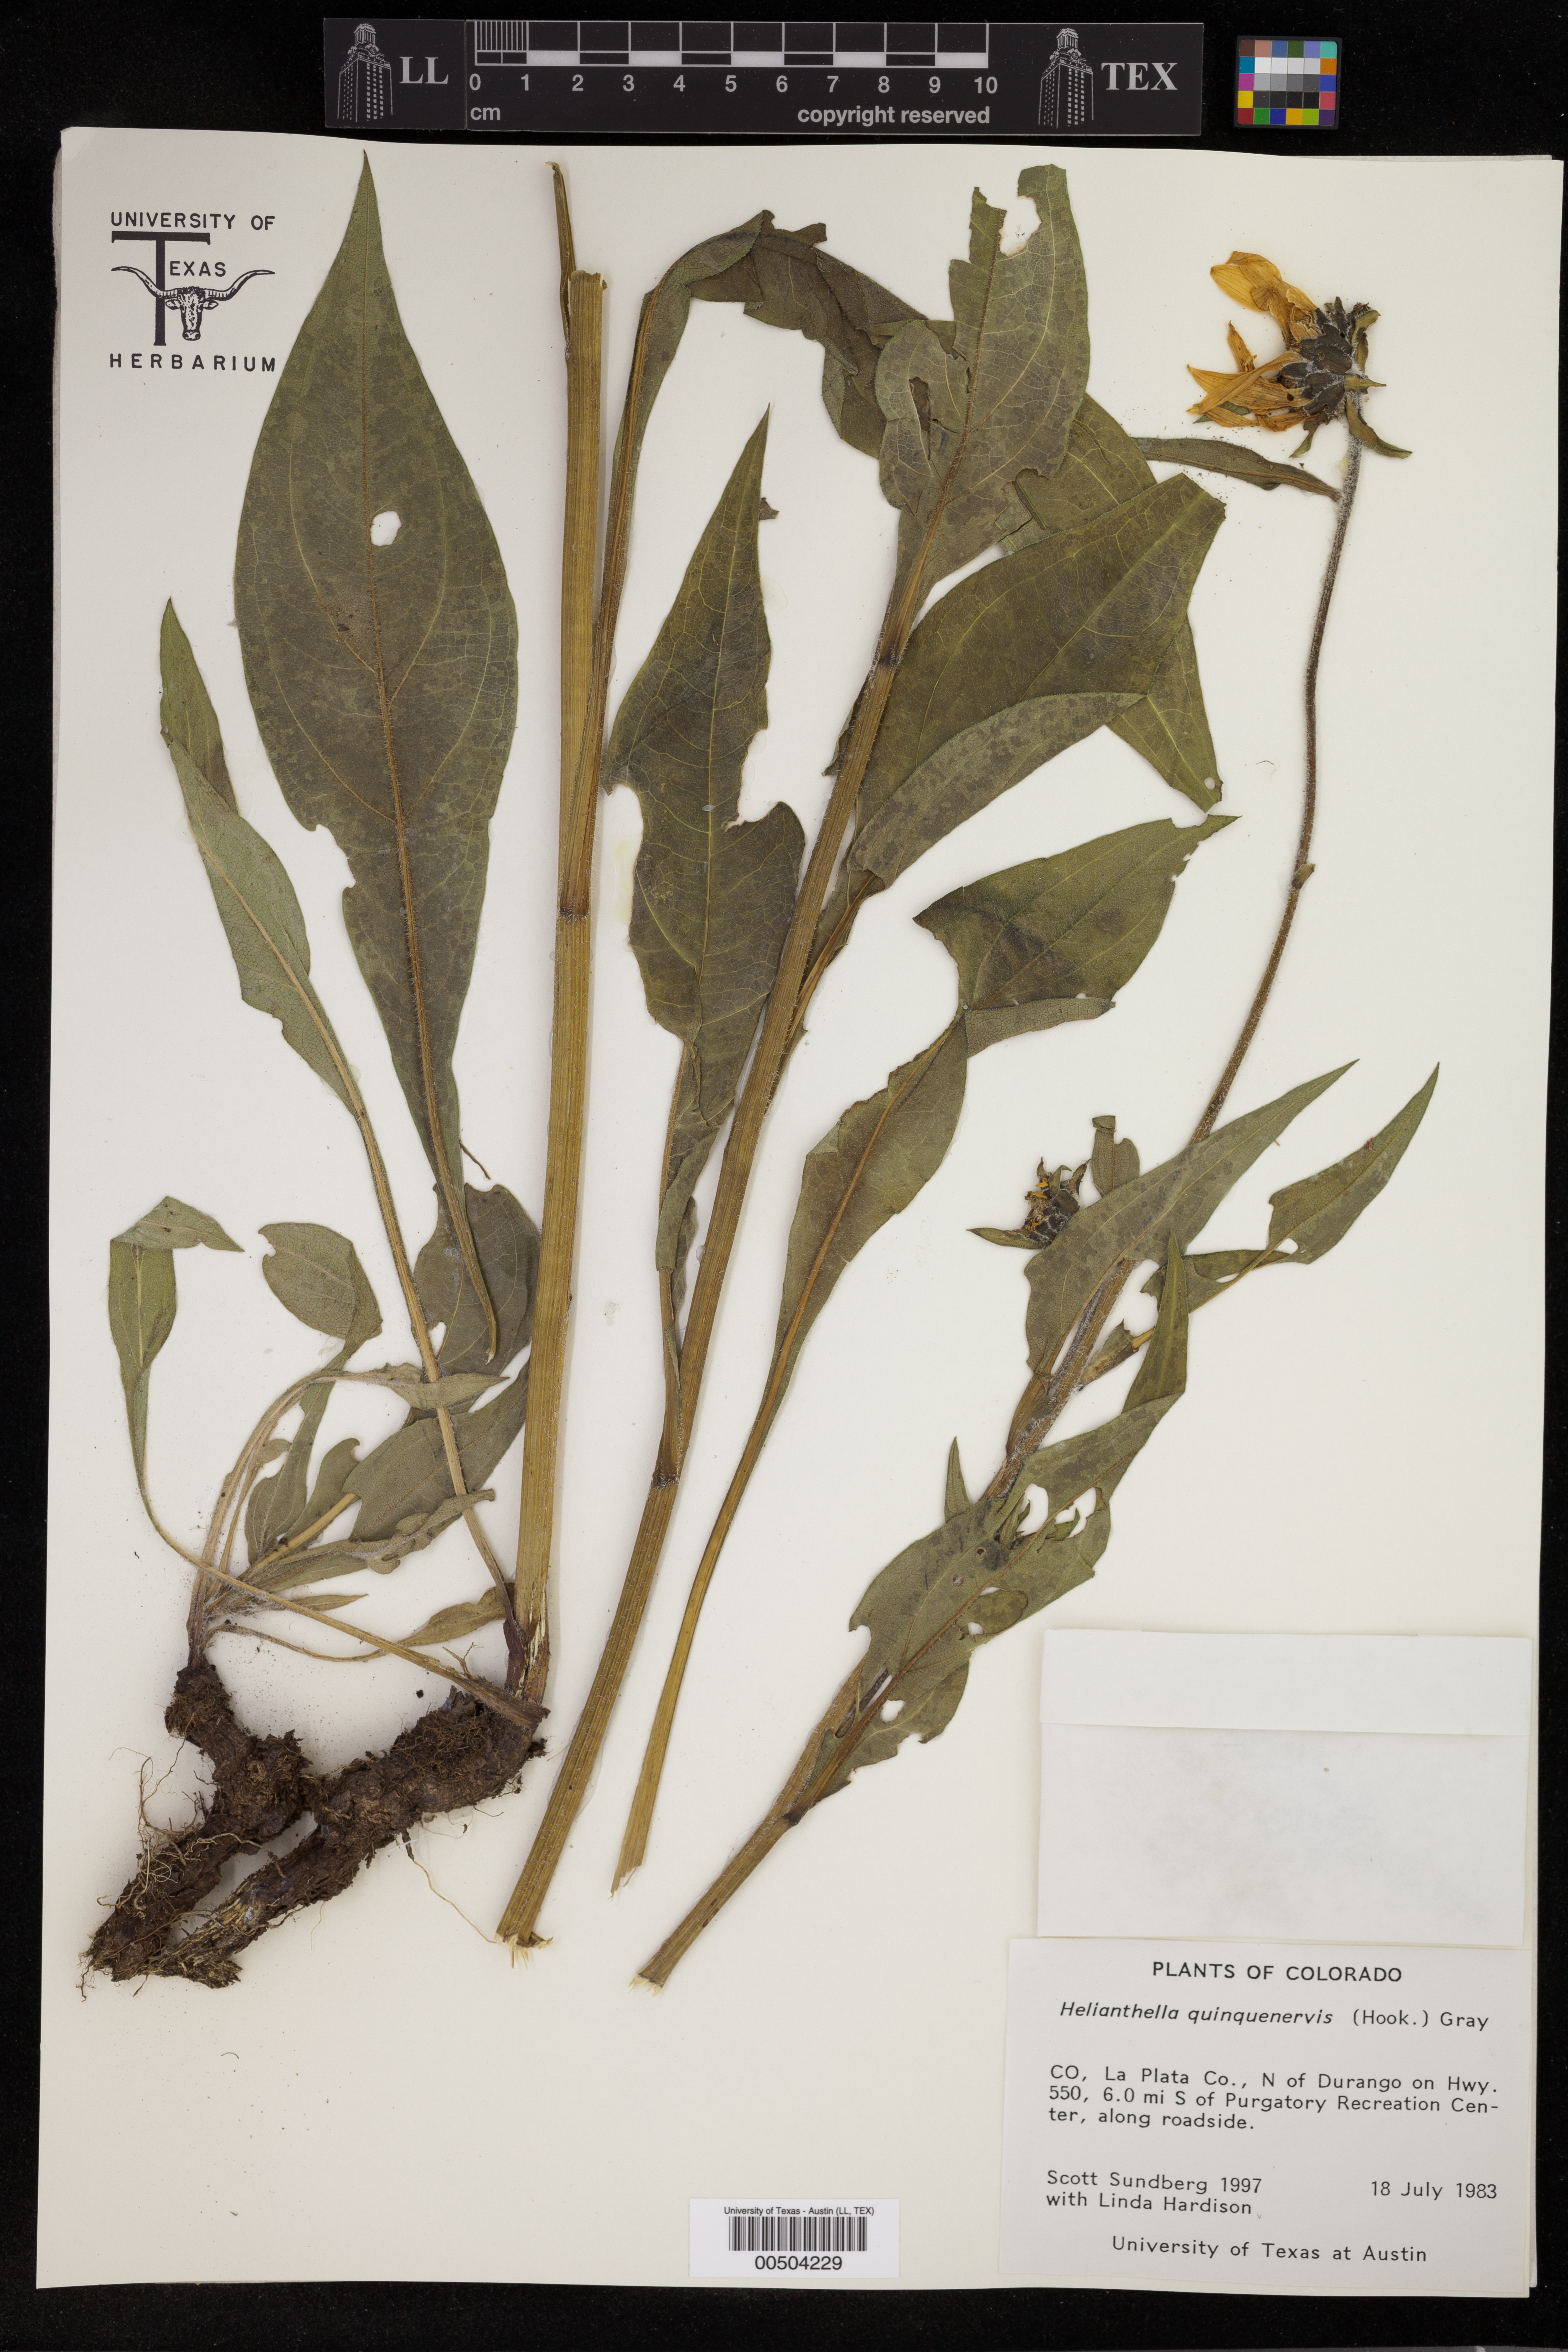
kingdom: Plantae
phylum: Tracheophyta
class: Magnoliopsida
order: Asterales
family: Asteraceae
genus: Helianthella
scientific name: Helianthella quinquenervis
